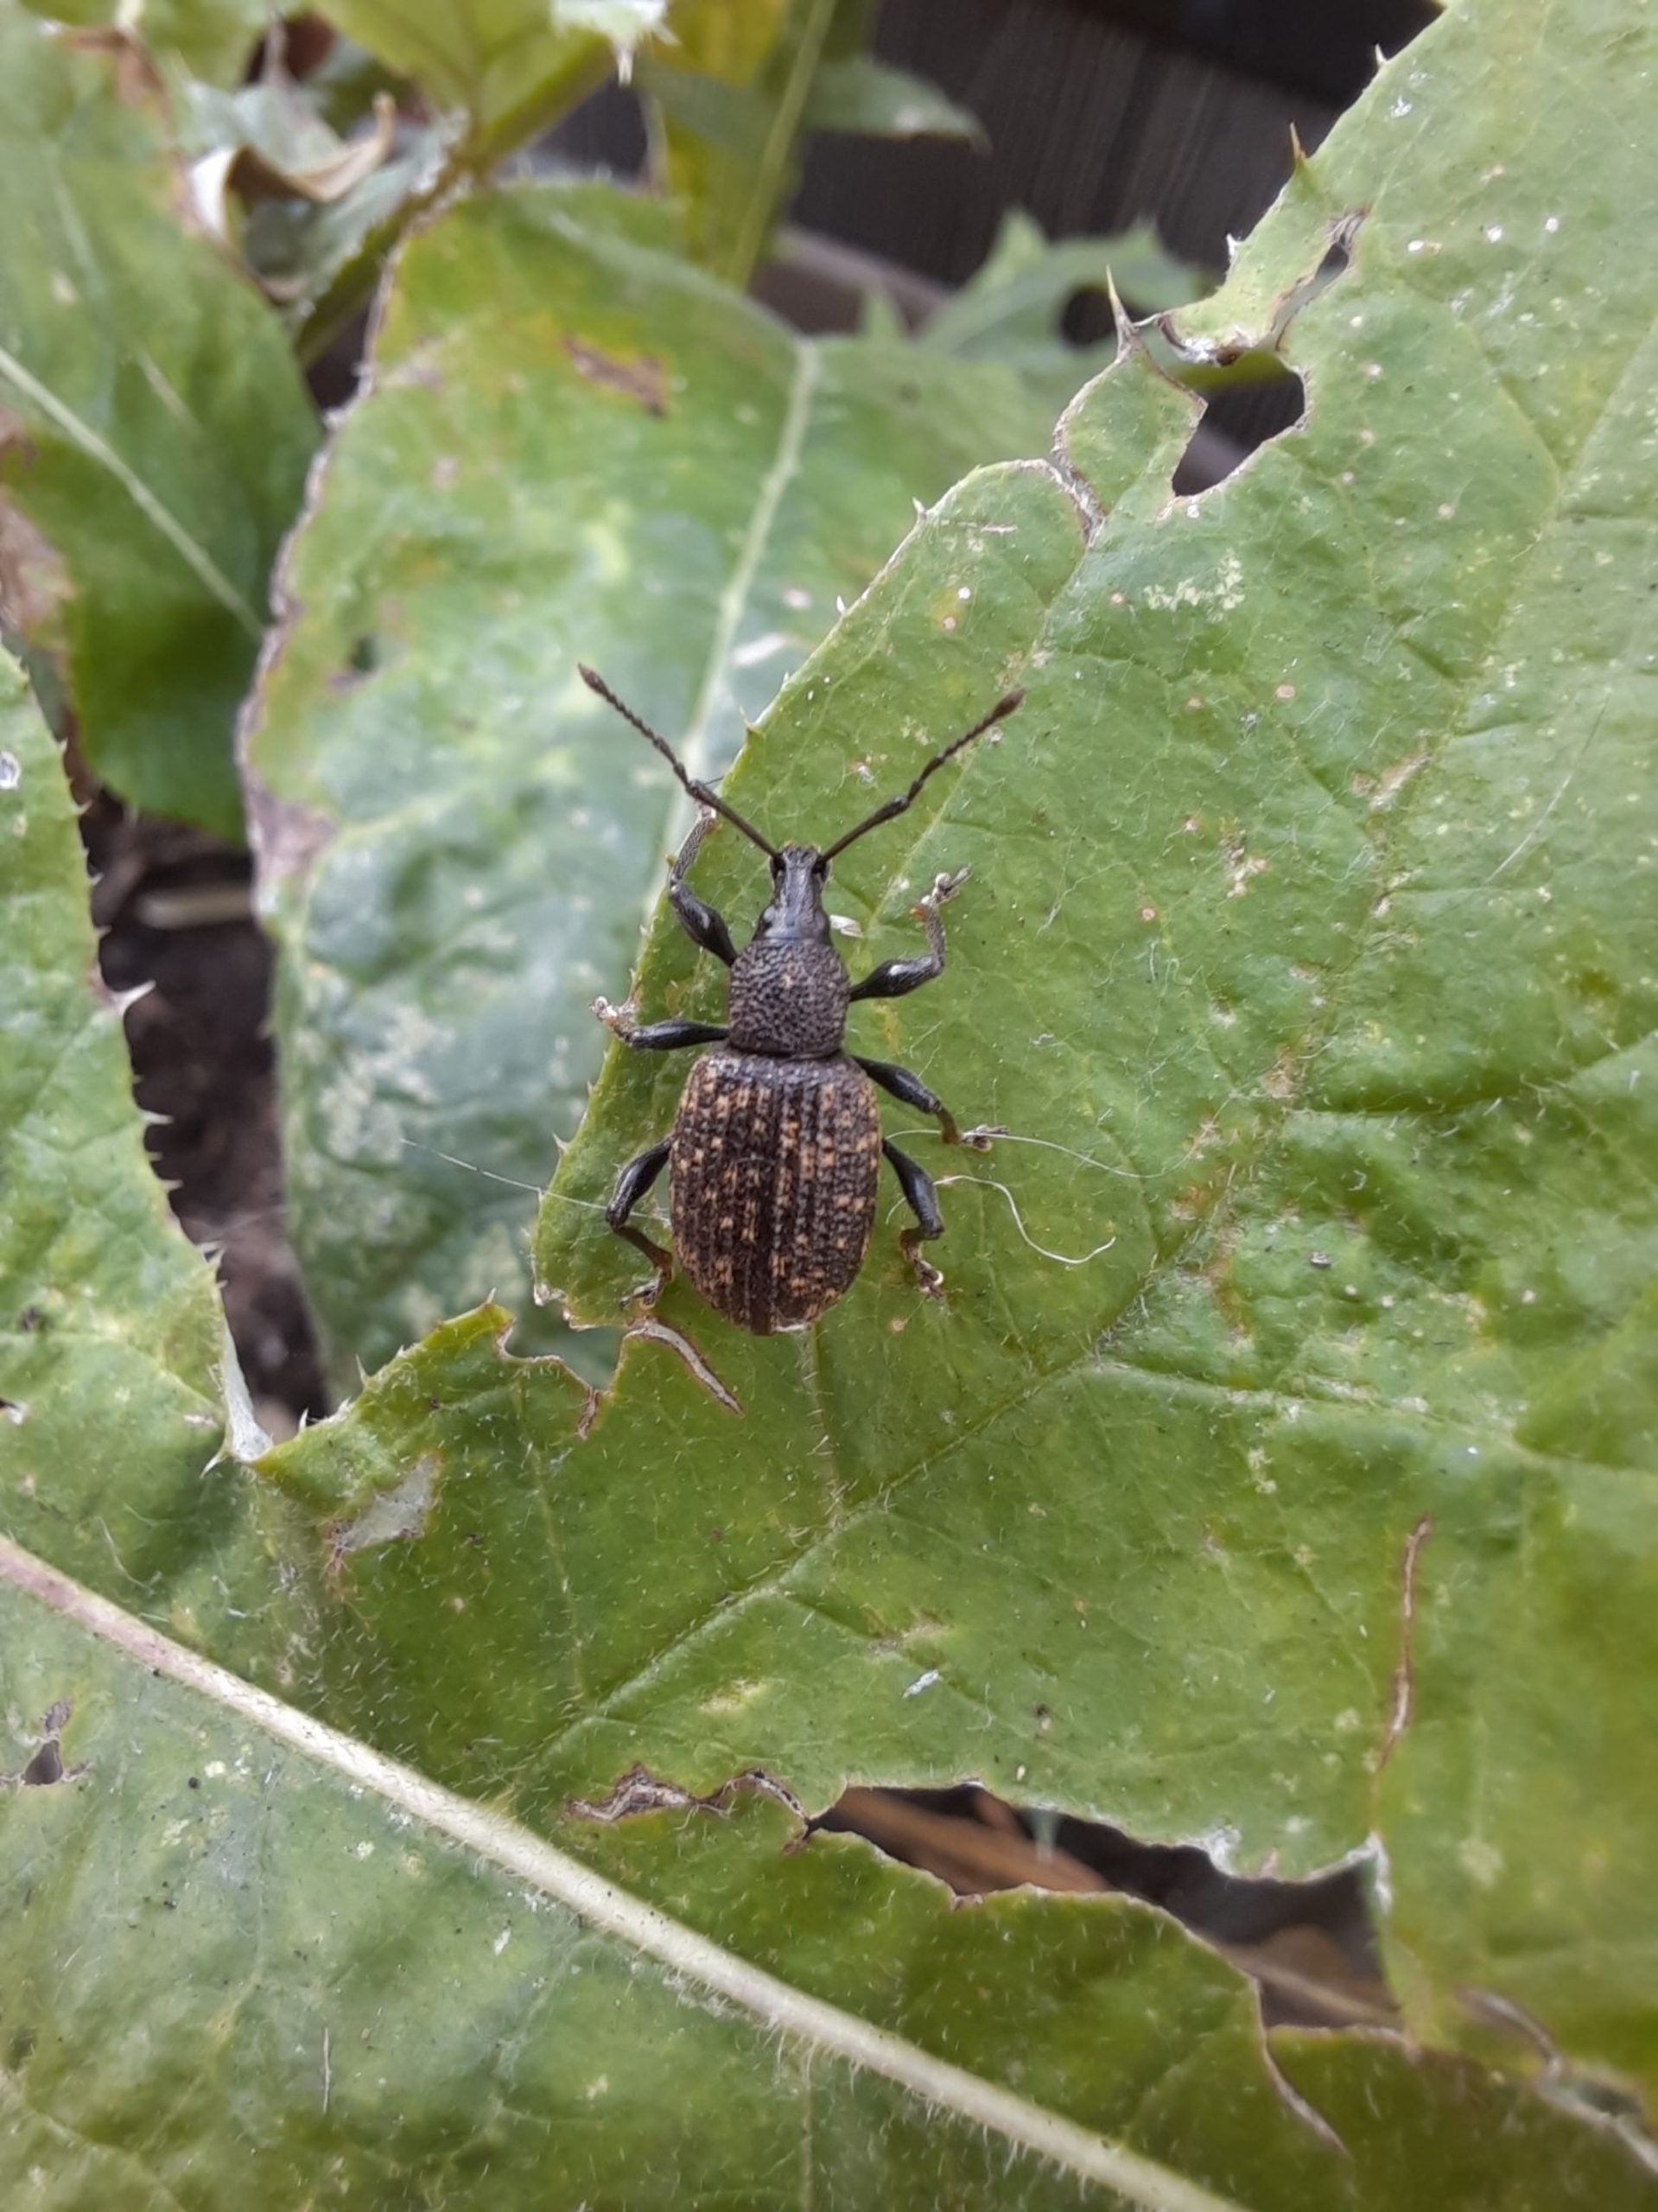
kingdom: Animalia
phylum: Arthropoda
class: Insecta
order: Coleoptera
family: Curculionidae
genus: Otiorhynchus
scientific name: Otiorhynchus sulcatus
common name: Væksthussnudebille
